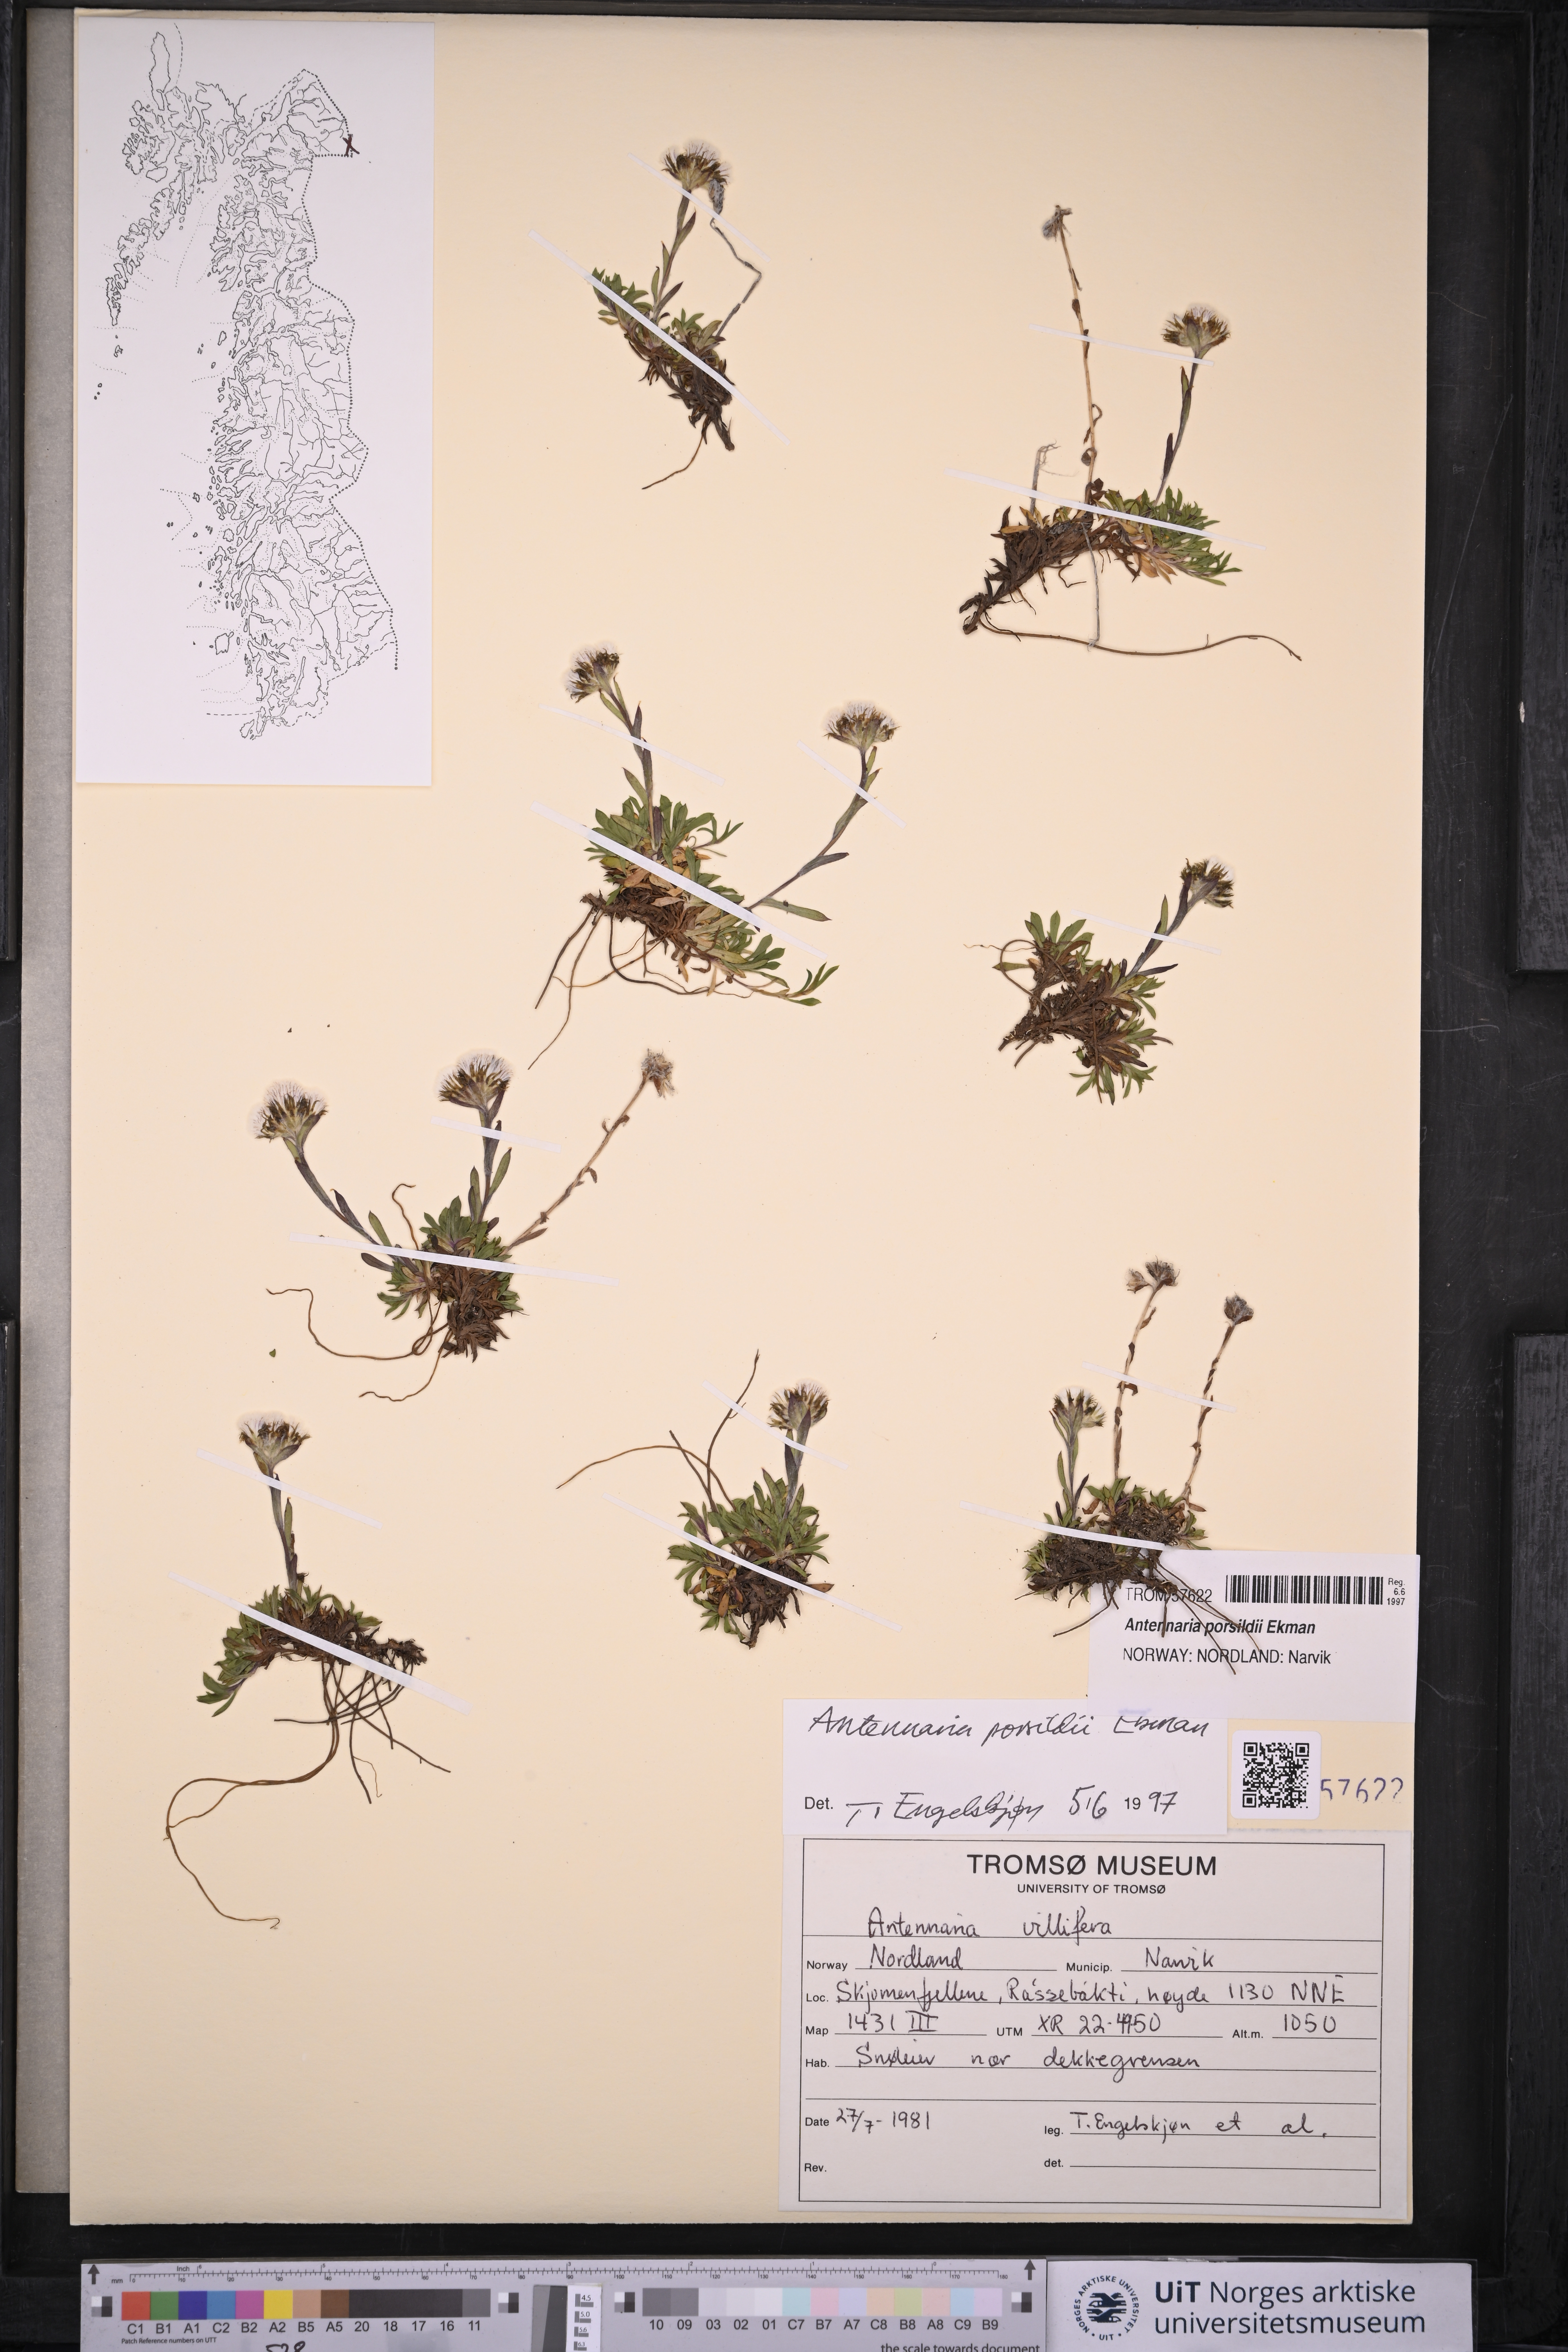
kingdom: Plantae
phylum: Tracheophyta
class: Magnoliopsida
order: Asterales
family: Asteraceae
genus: Antennaria
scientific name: Antennaria porsildii
